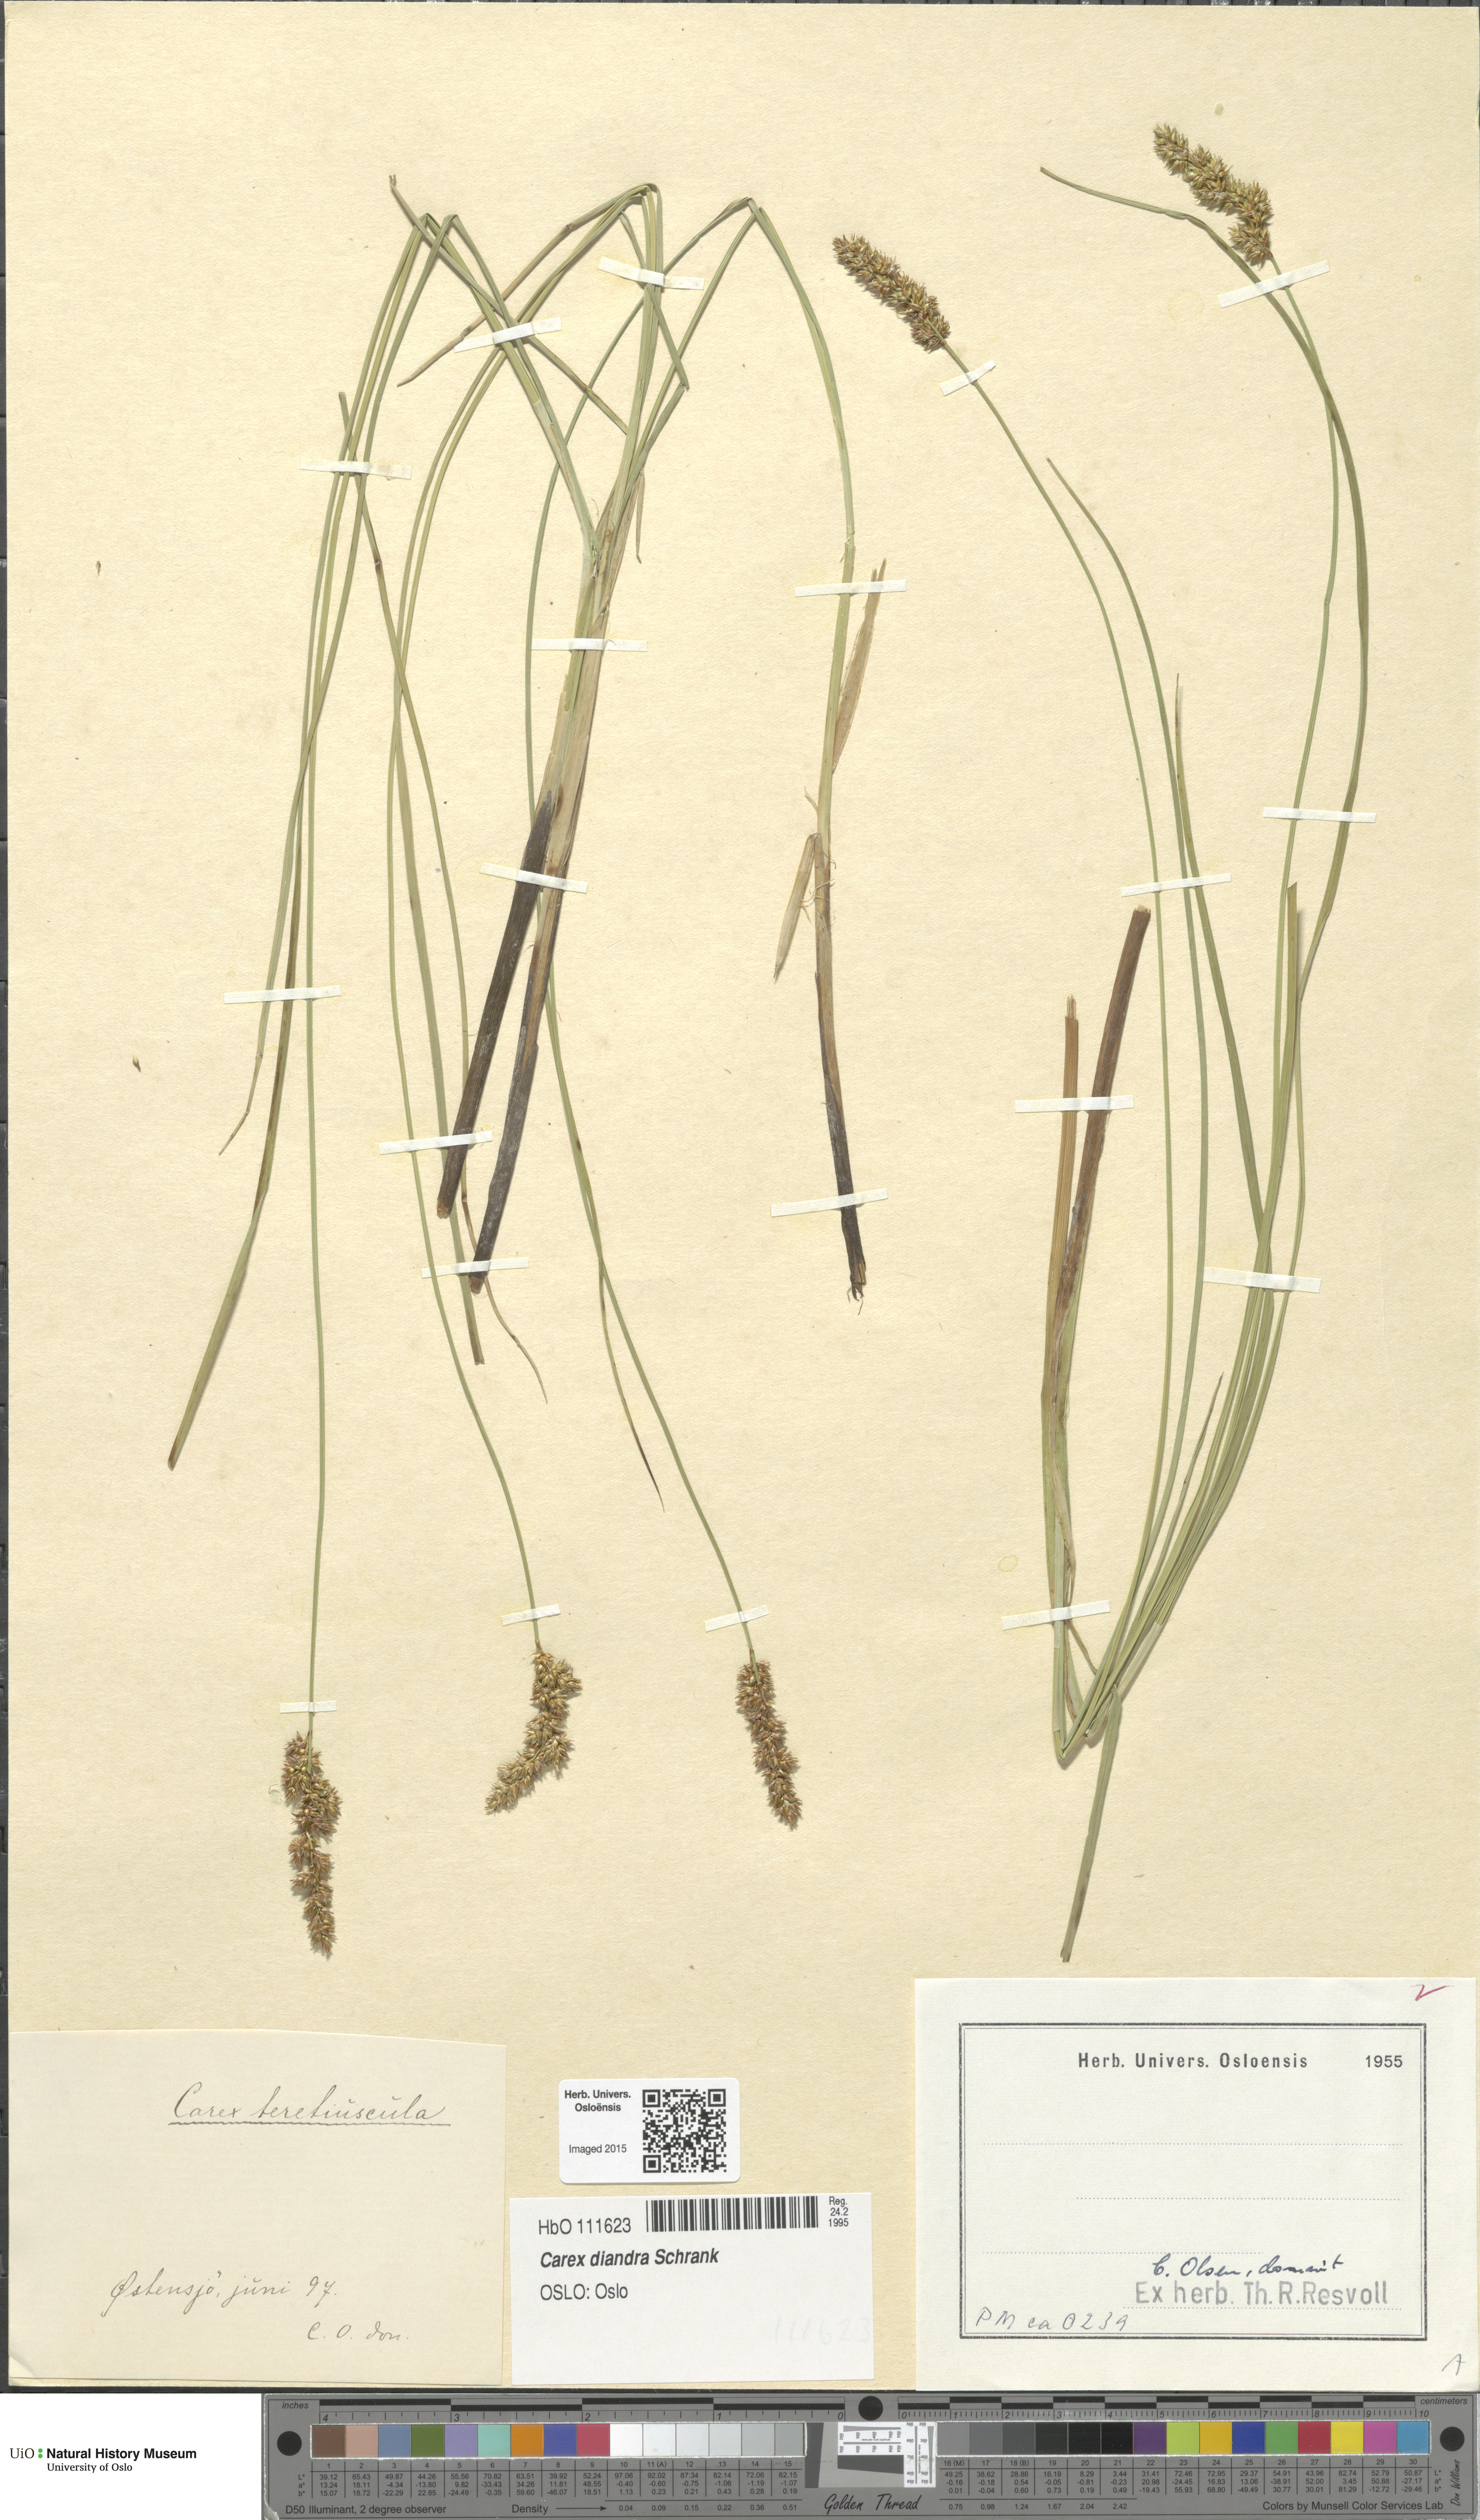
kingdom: Plantae
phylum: Tracheophyta
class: Liliopsida
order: Poales
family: Cyperaceae
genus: Carex
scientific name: Carex diandra
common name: Lesser tussock-sedge
